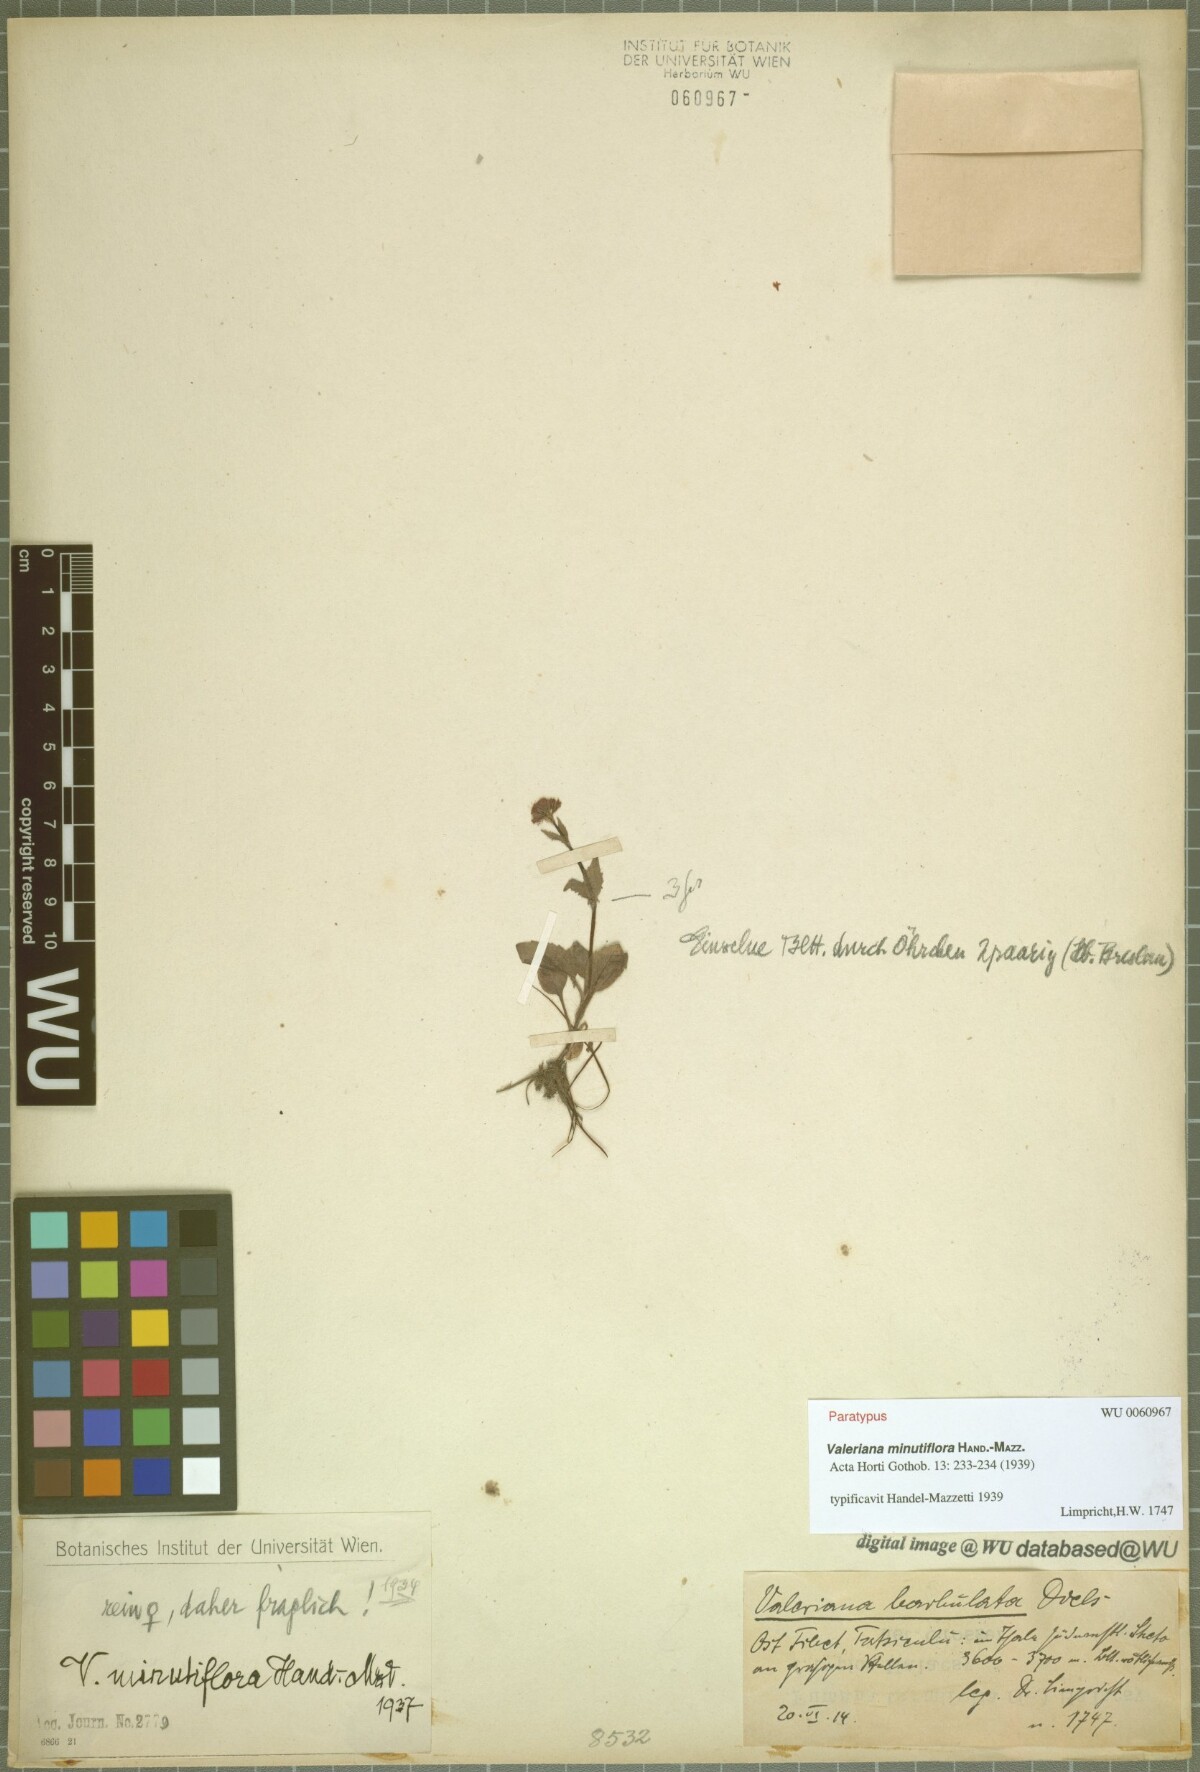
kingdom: Plantae
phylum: Tracheophyta
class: Magnoliopsida
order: Dipsacales
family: Caprifoliaceae
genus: Valeriana
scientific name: Valeriana minutiflora
